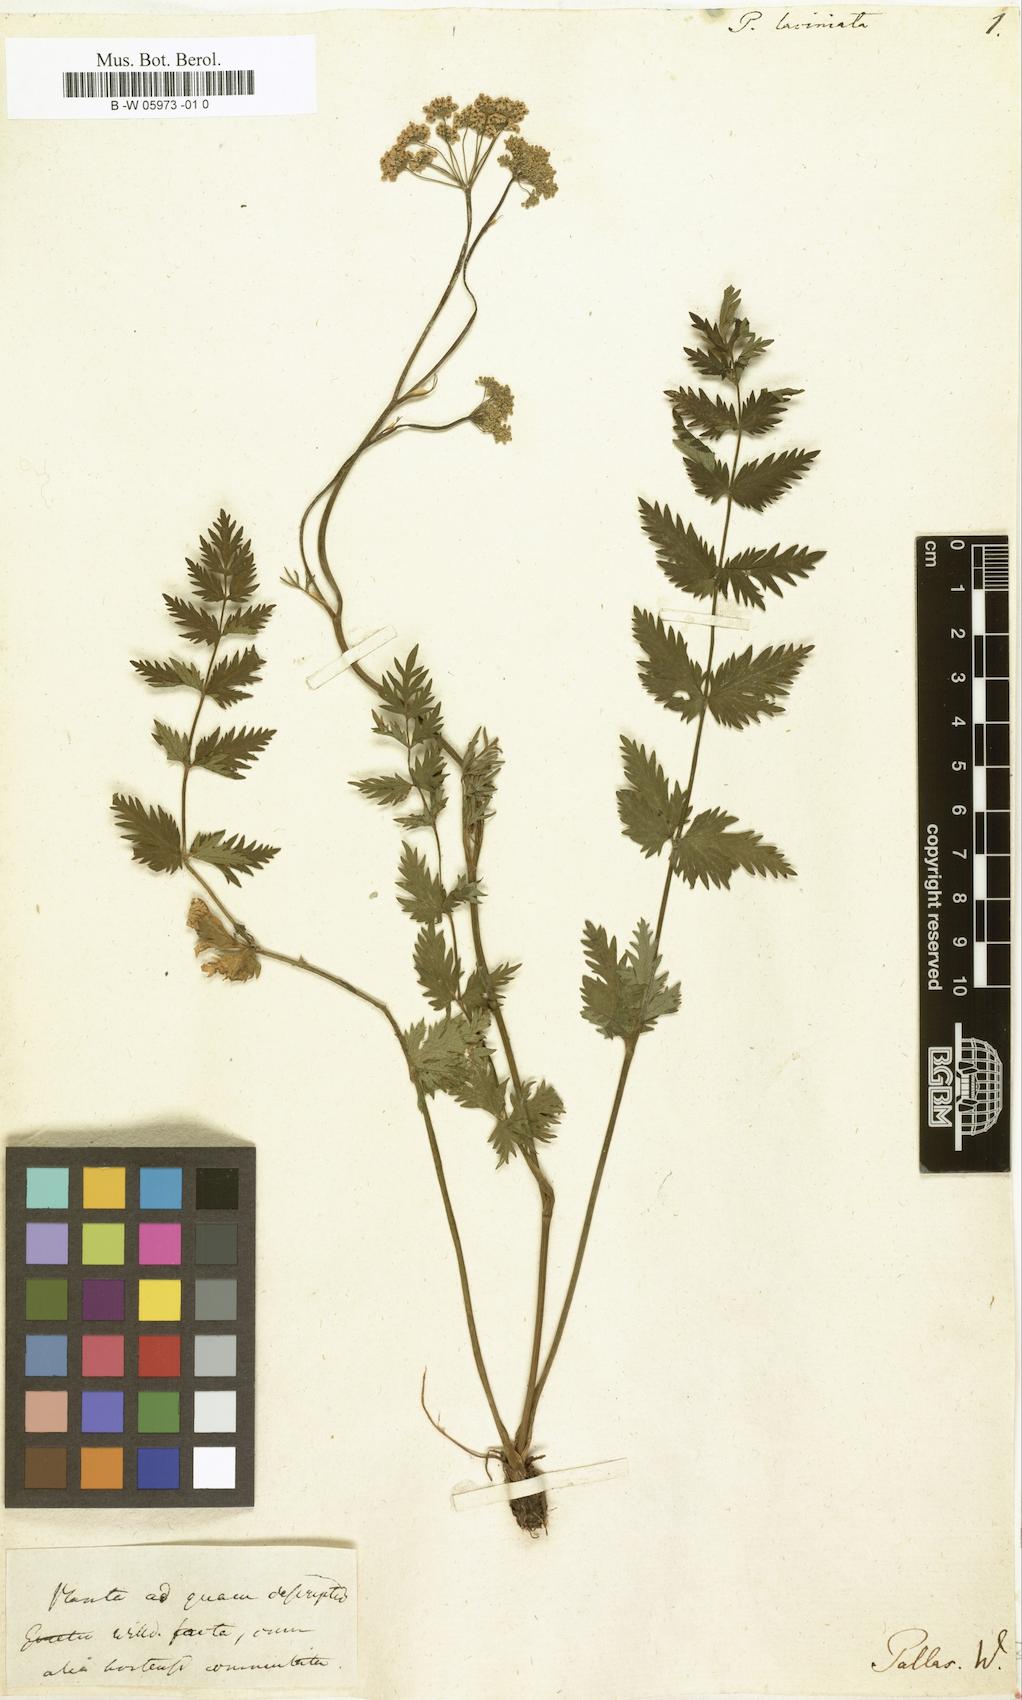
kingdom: Plantae
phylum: Tracheophyta
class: Magnoliopsida
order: Apiales
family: Apiaceae
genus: Pimpinella
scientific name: Pimpinella
